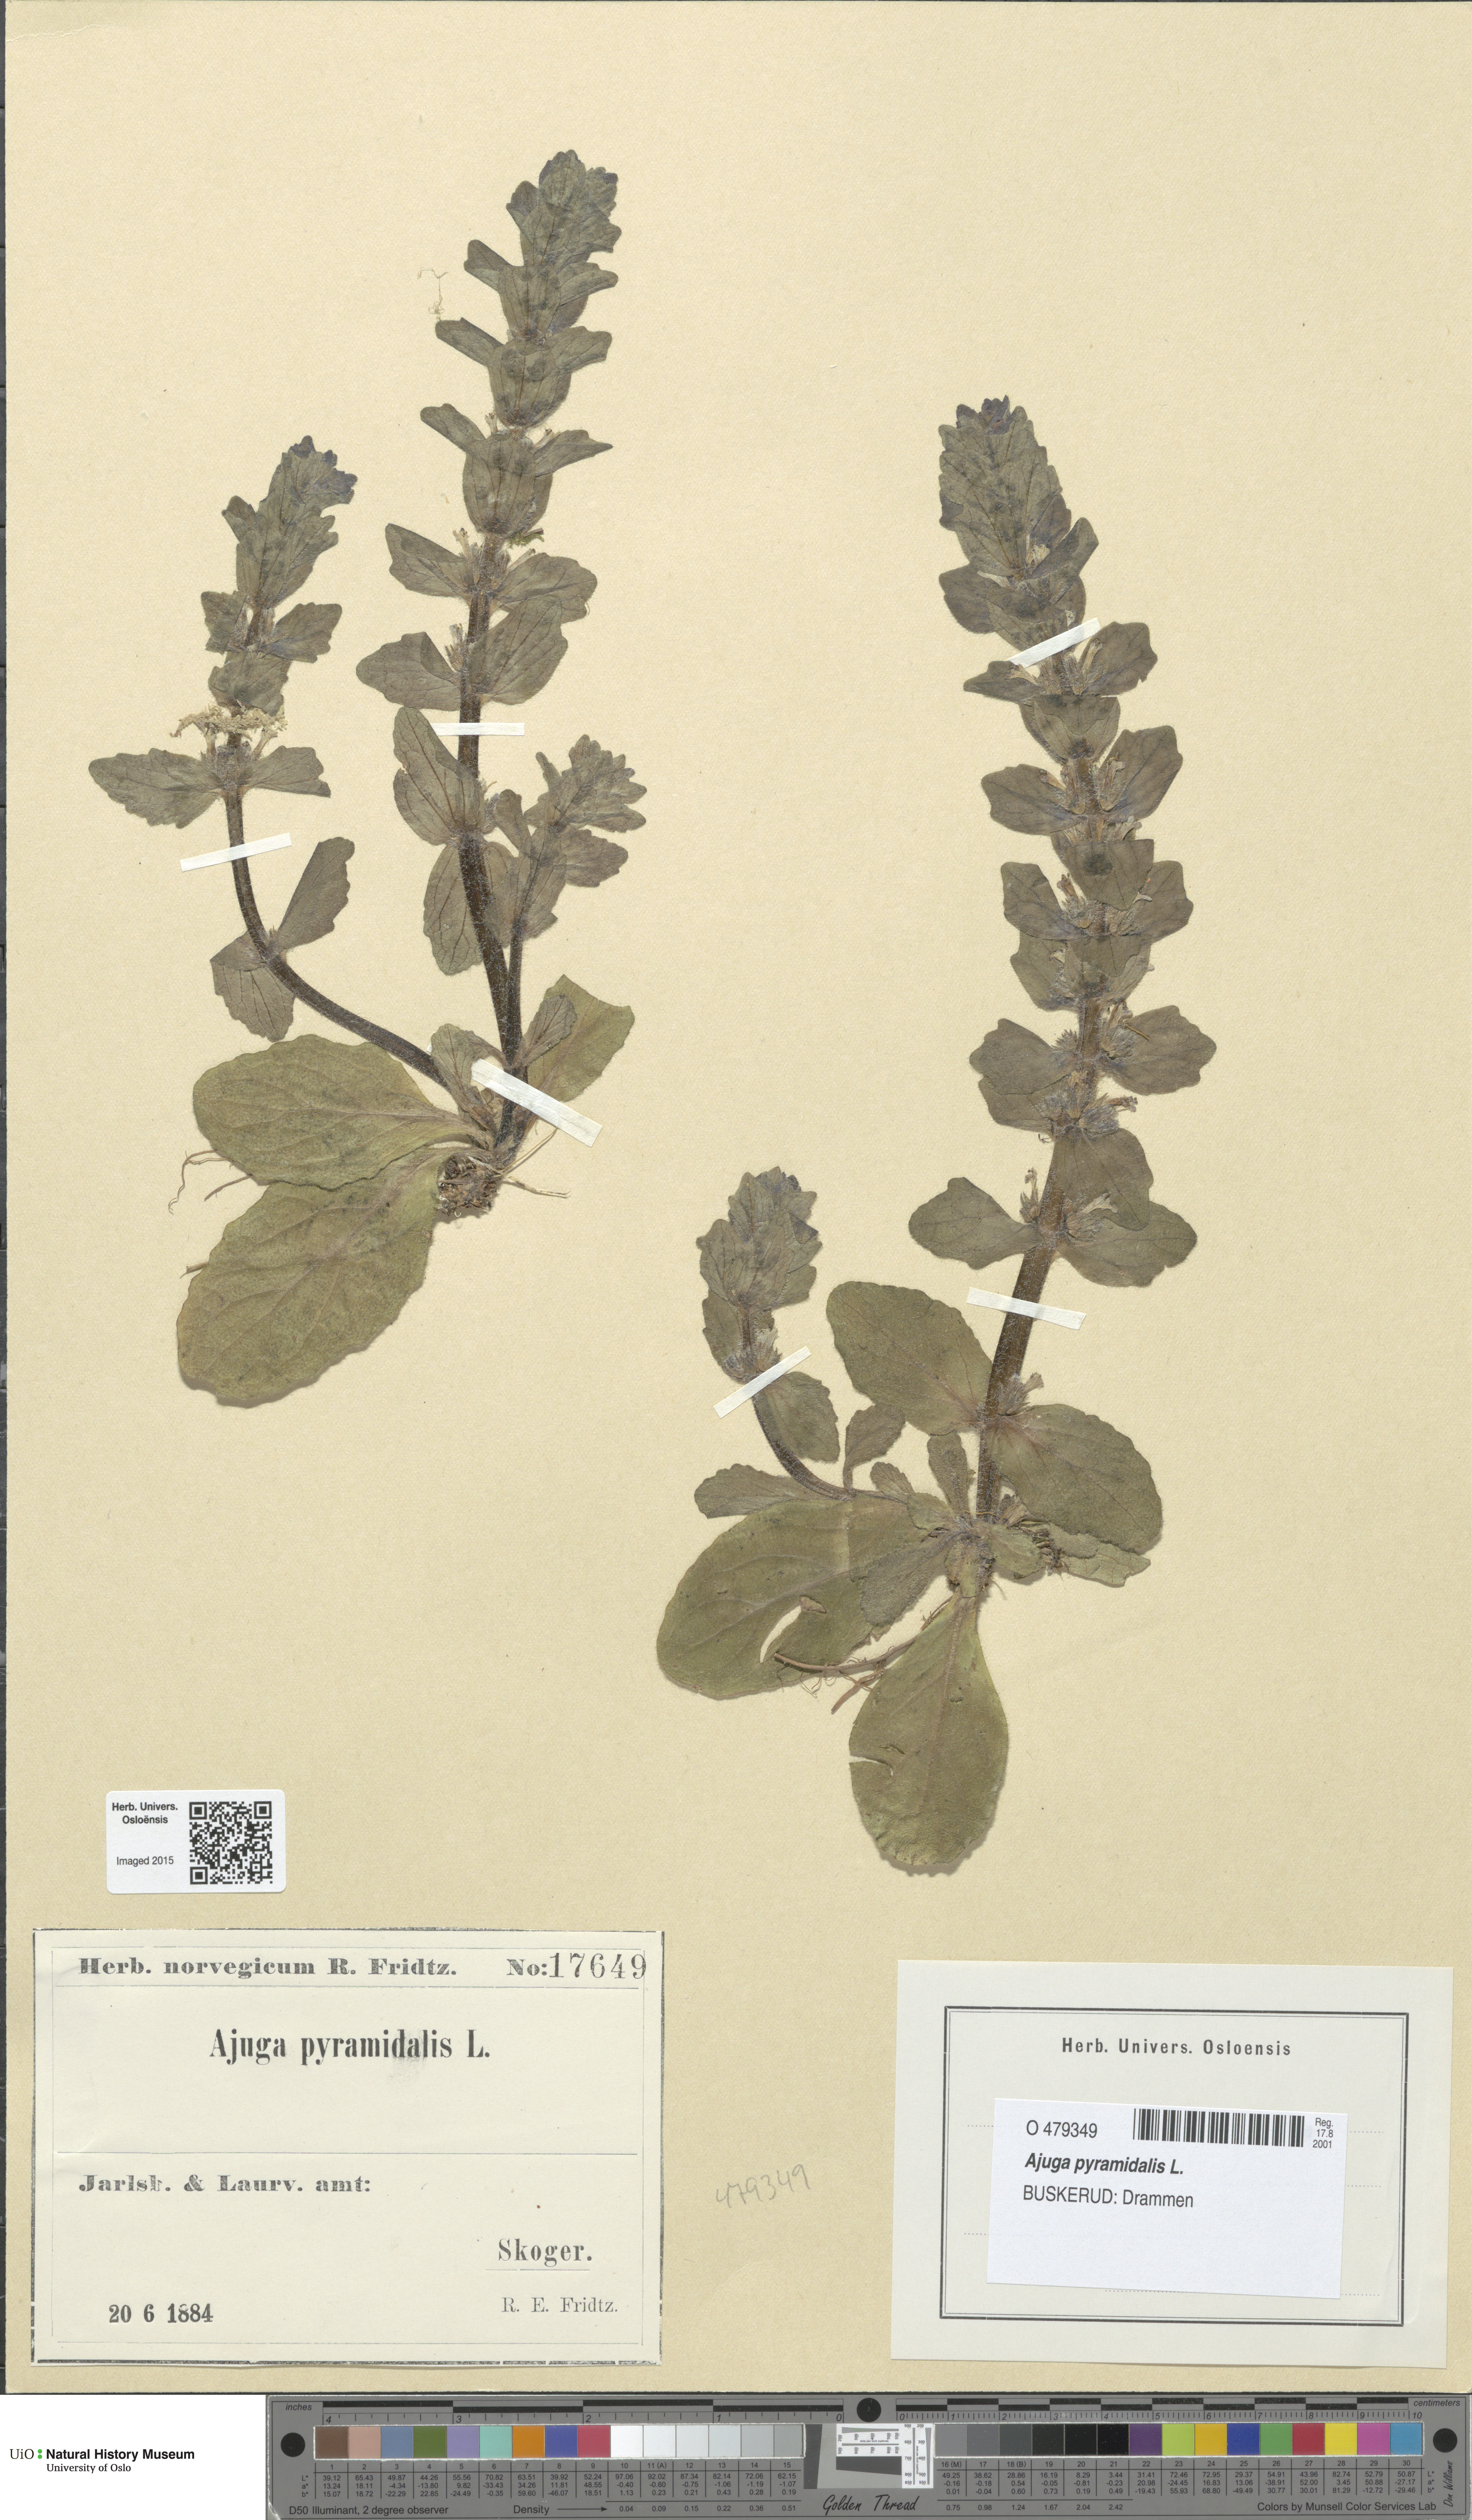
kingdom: Plantae
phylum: Tracheophyta
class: Magnoliopsida
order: Lamiales
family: Lamiaceae
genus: Ajuga
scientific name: Ajuga pyramidalis
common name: Pyramid bugle
